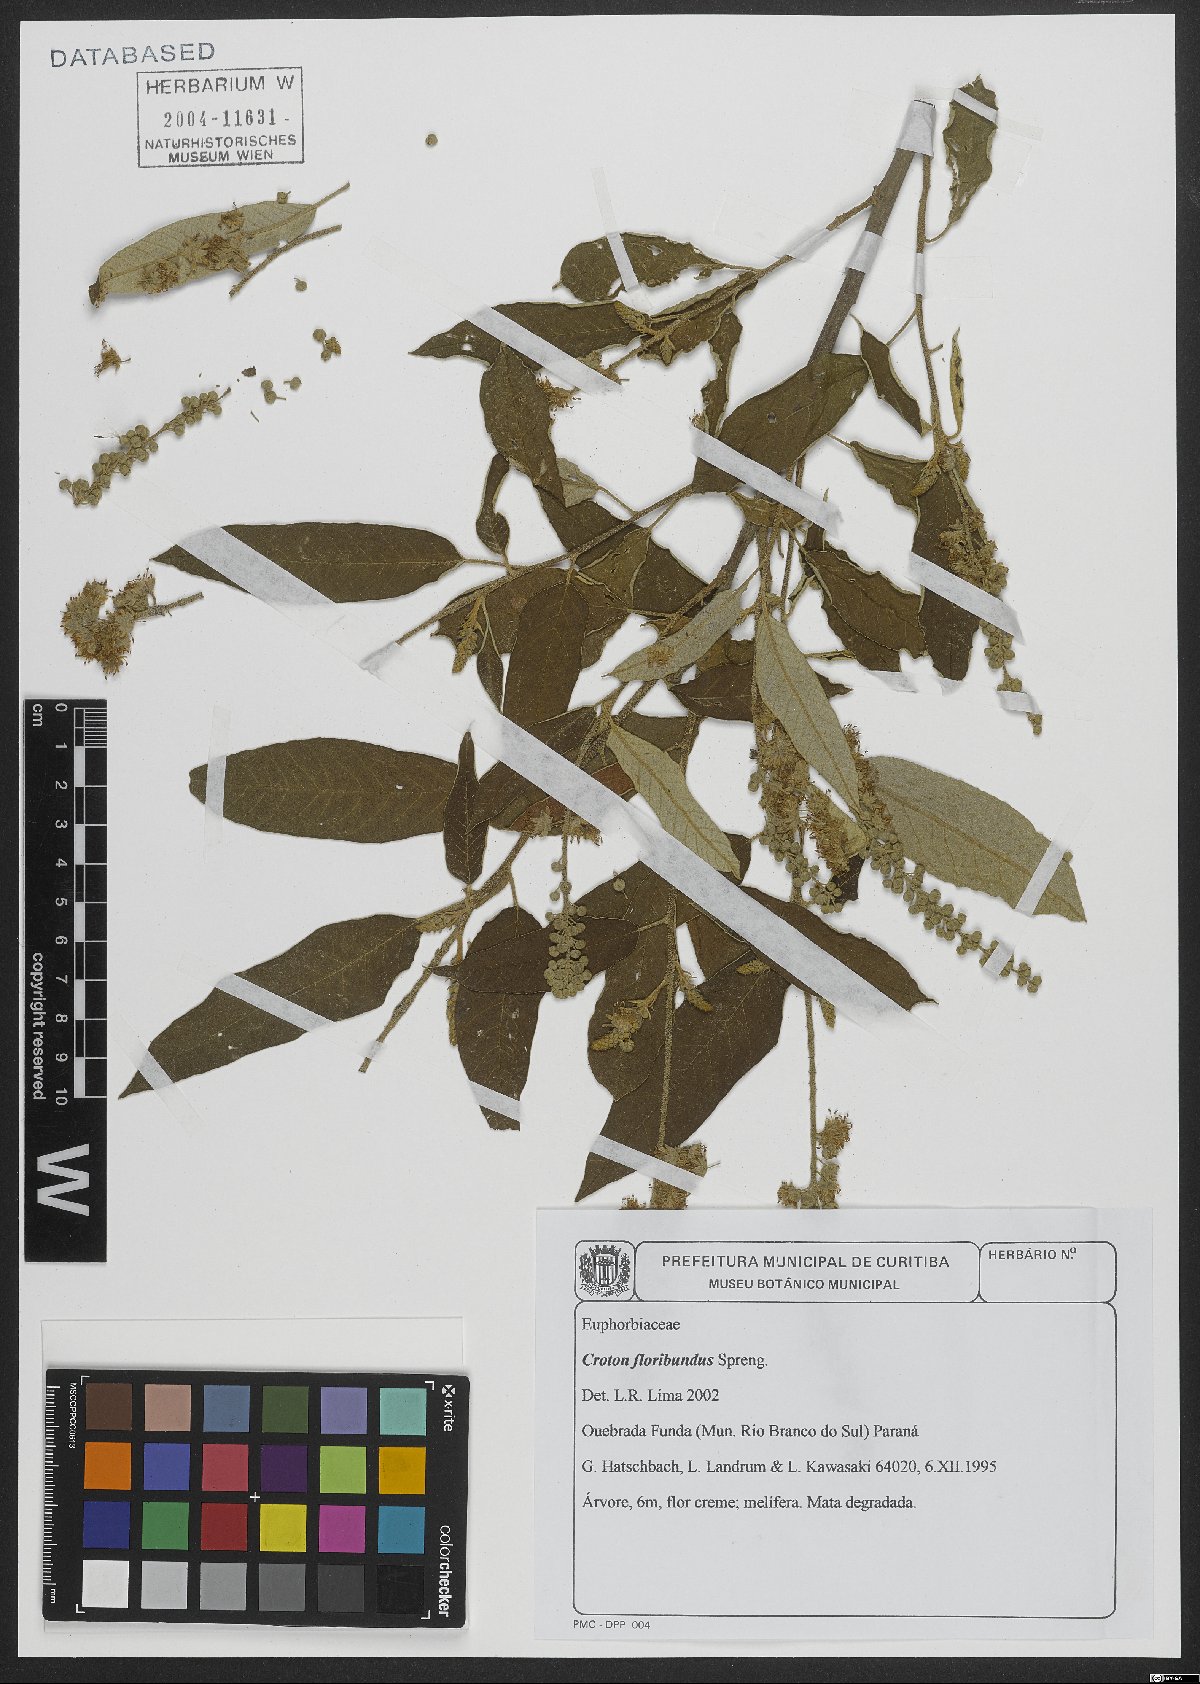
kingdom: Plantae
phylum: Tracheophyta
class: Magnoliopsida
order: Malpighiales
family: Euphorbiaceae
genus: Croton
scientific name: Croton floribundus
